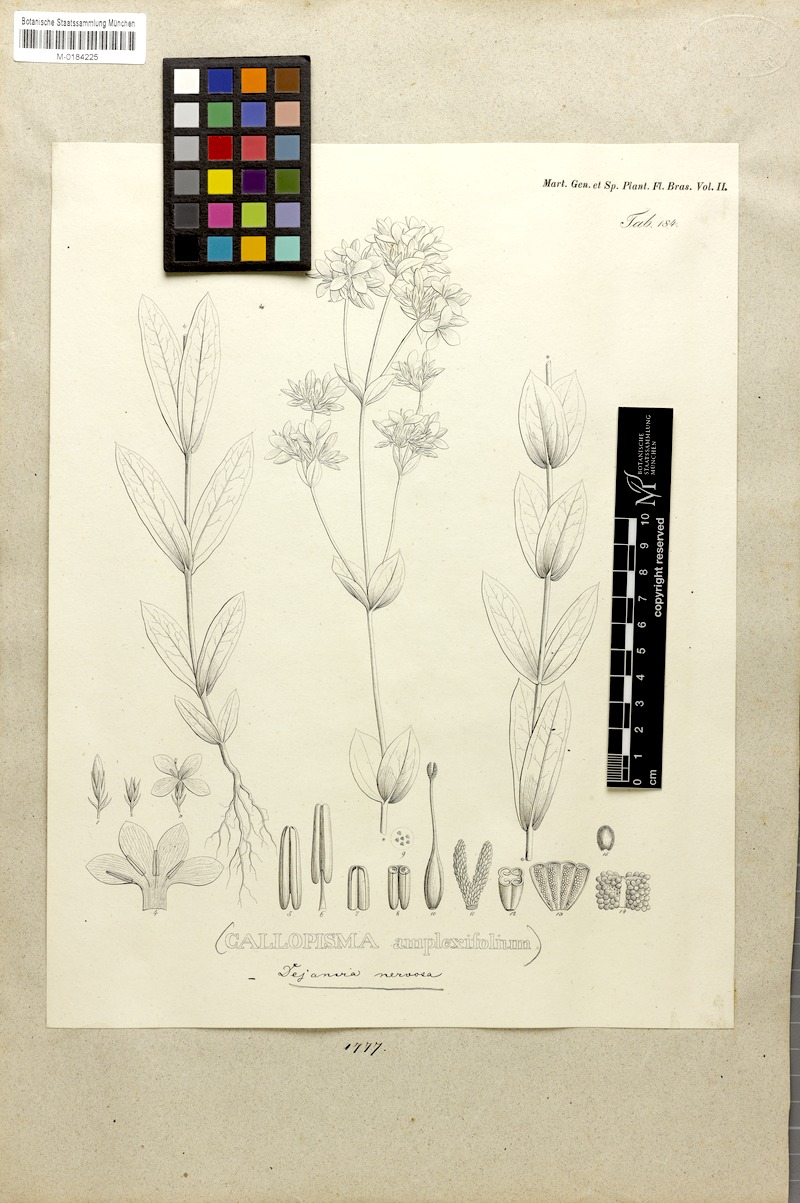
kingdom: Plantae
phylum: Tracheophyta
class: Magnoliopsida
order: Gentianales
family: Gentianaceae
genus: Deianira
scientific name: Deianira nervosa
